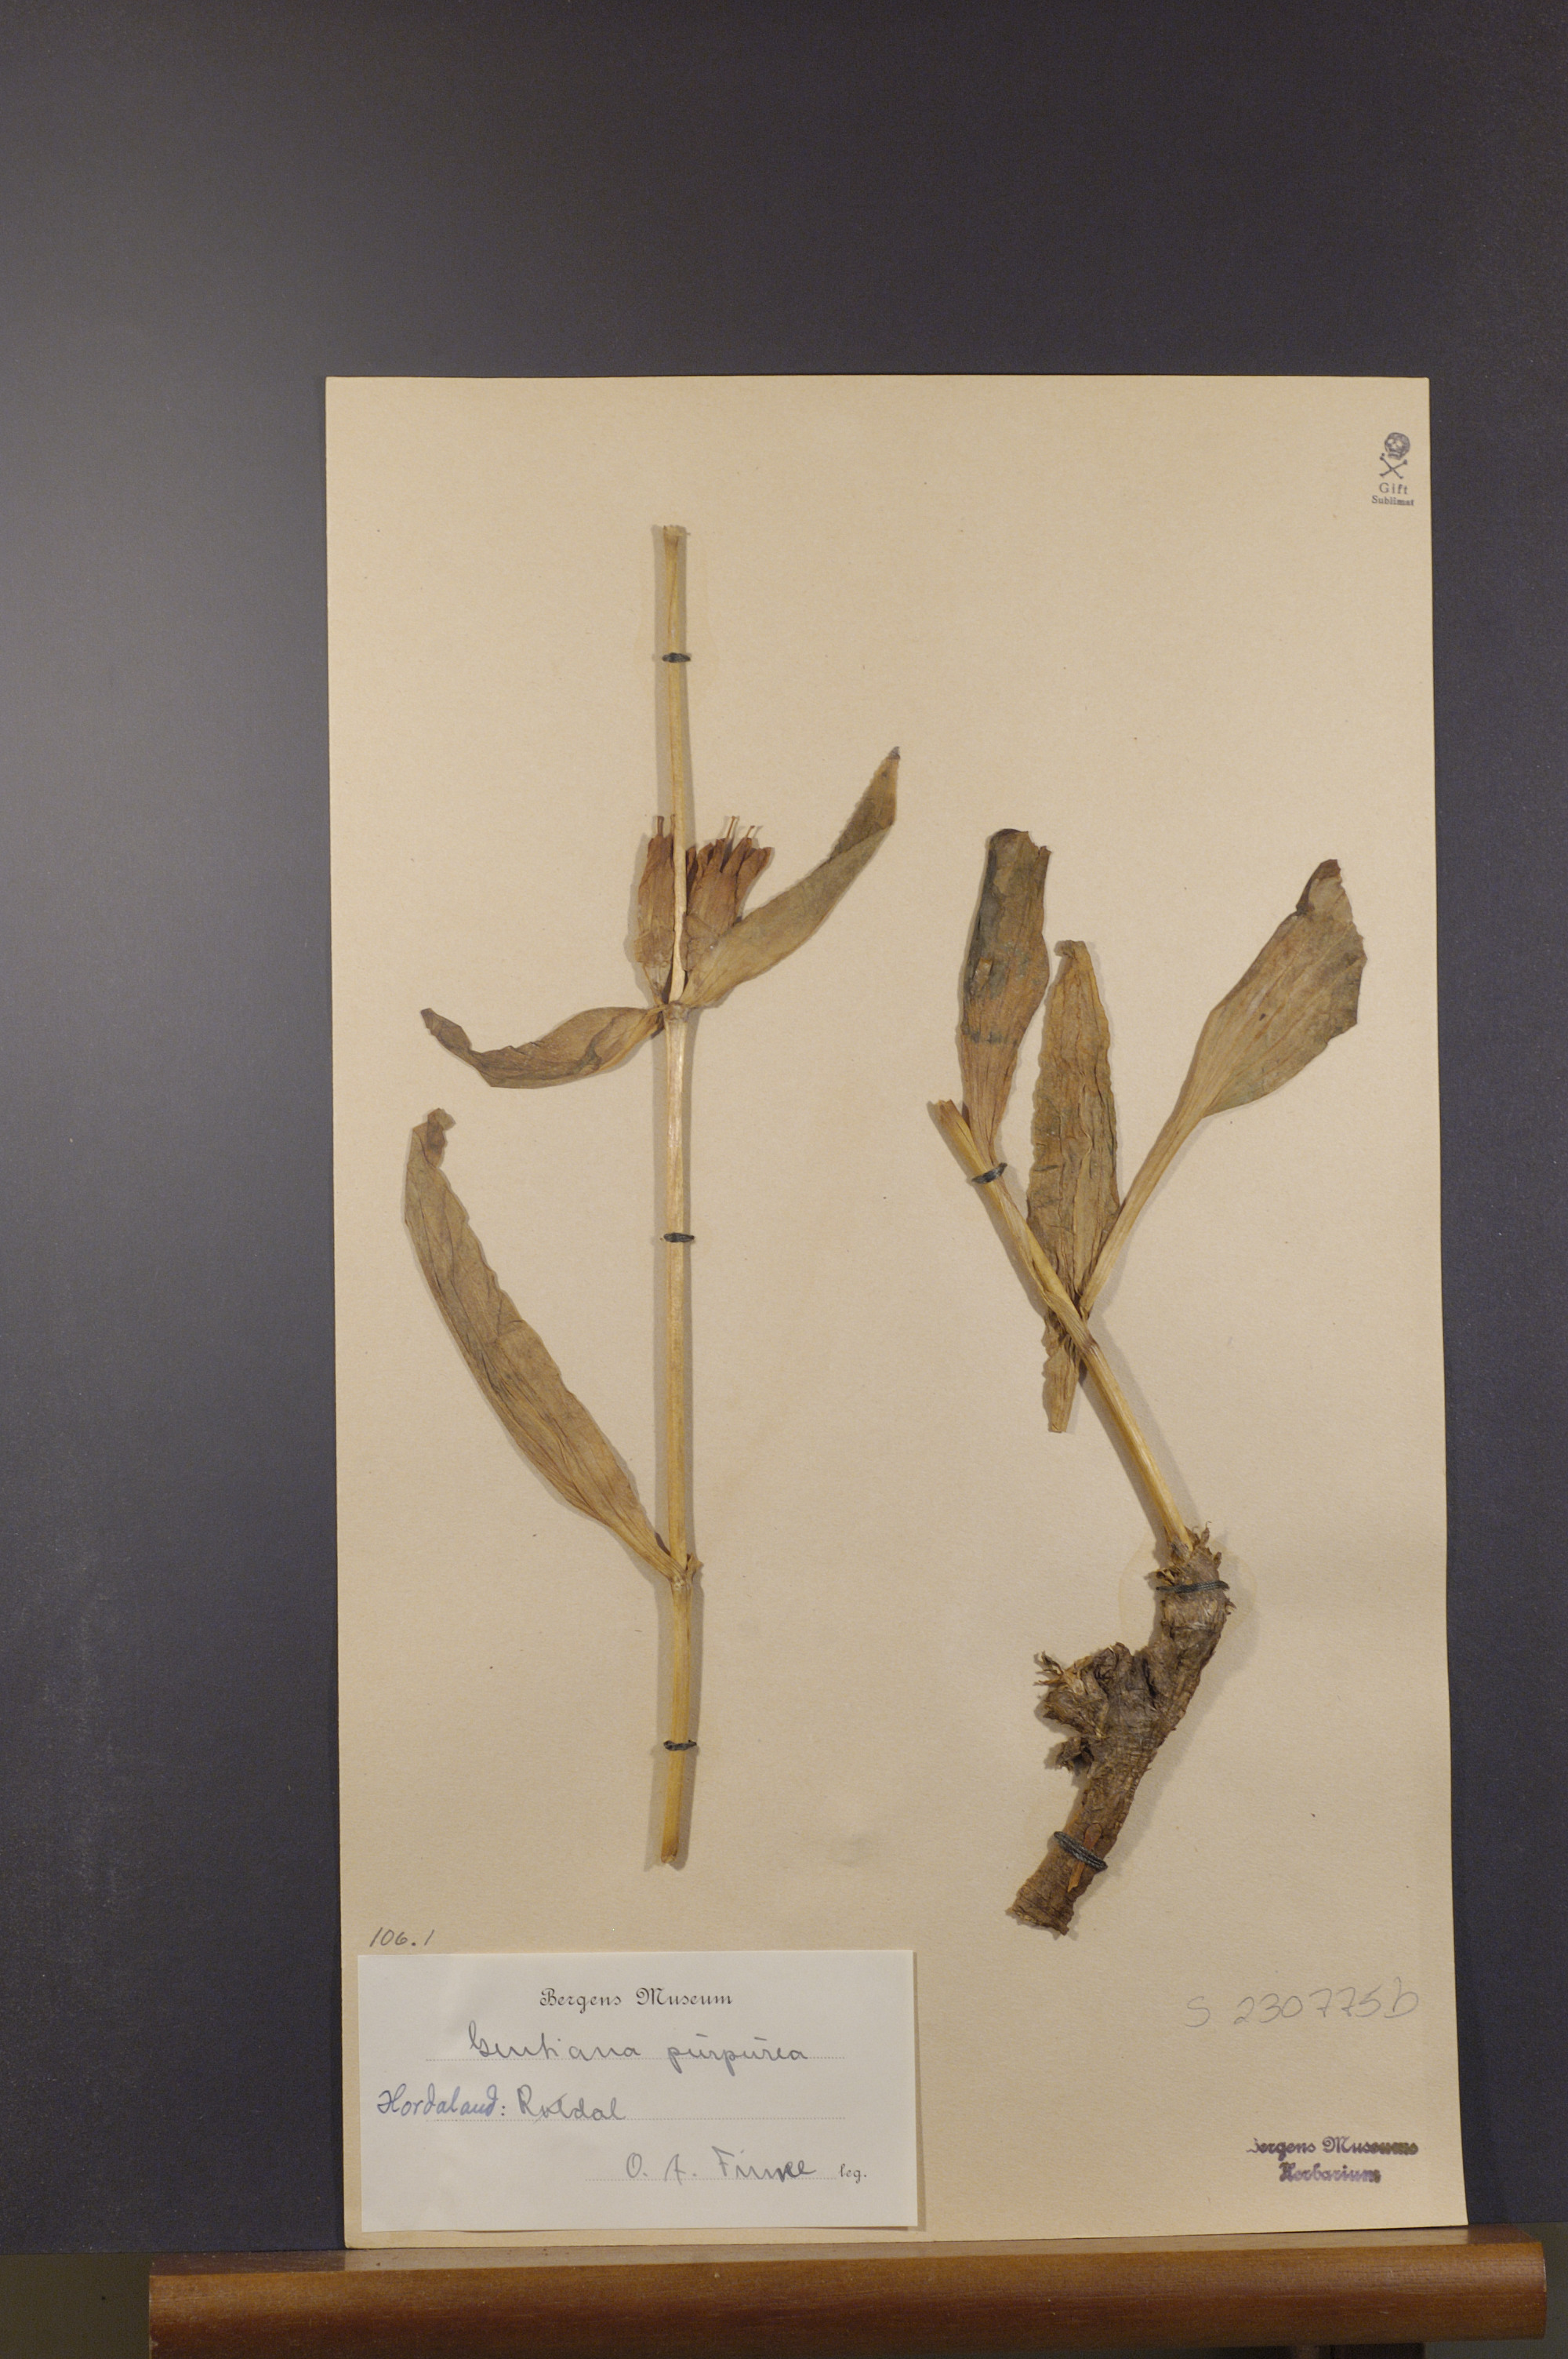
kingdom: Plantae
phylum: Tracheophyta
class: Magnoliopsida
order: Gentianales
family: Gentianaceae
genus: Gentiana
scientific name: Gentiana purpurea
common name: Purple gentian
